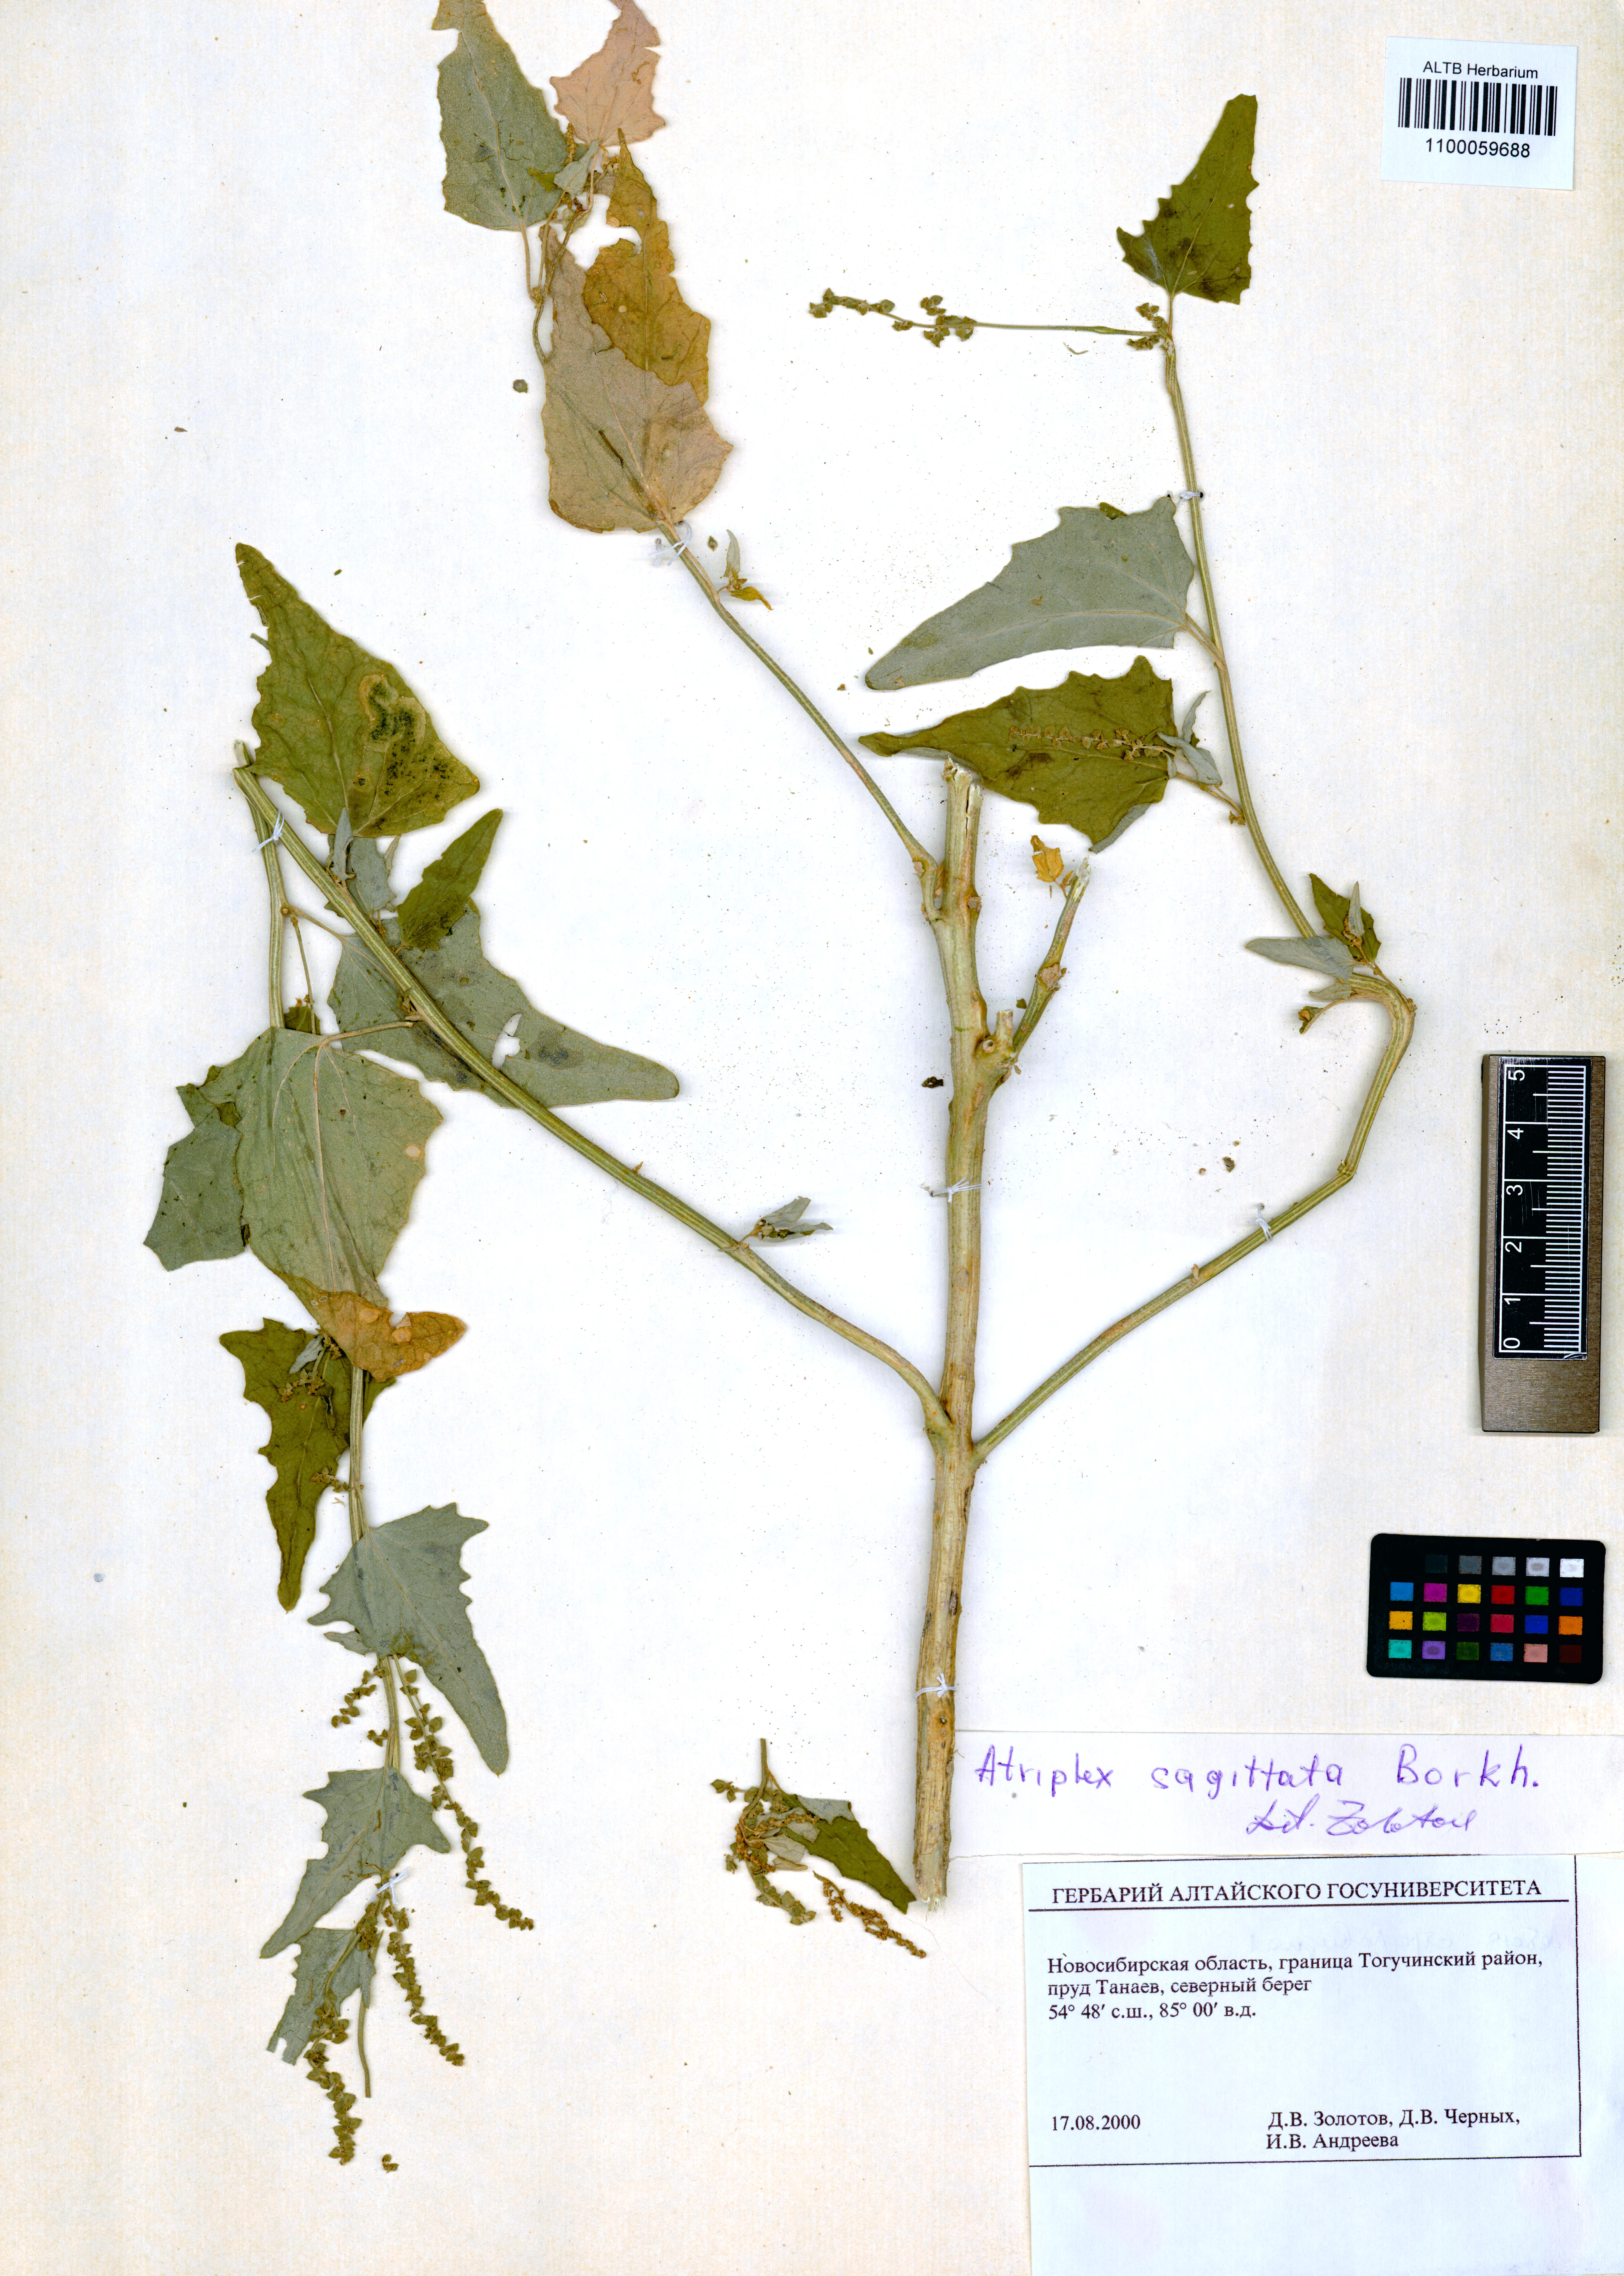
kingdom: Plantae
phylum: Tracheophyta
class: Magnoliopsida
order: Caryophyllales
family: Amaranthaceae
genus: Atriplex
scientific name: Atriplex sagittata
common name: Purple orache
